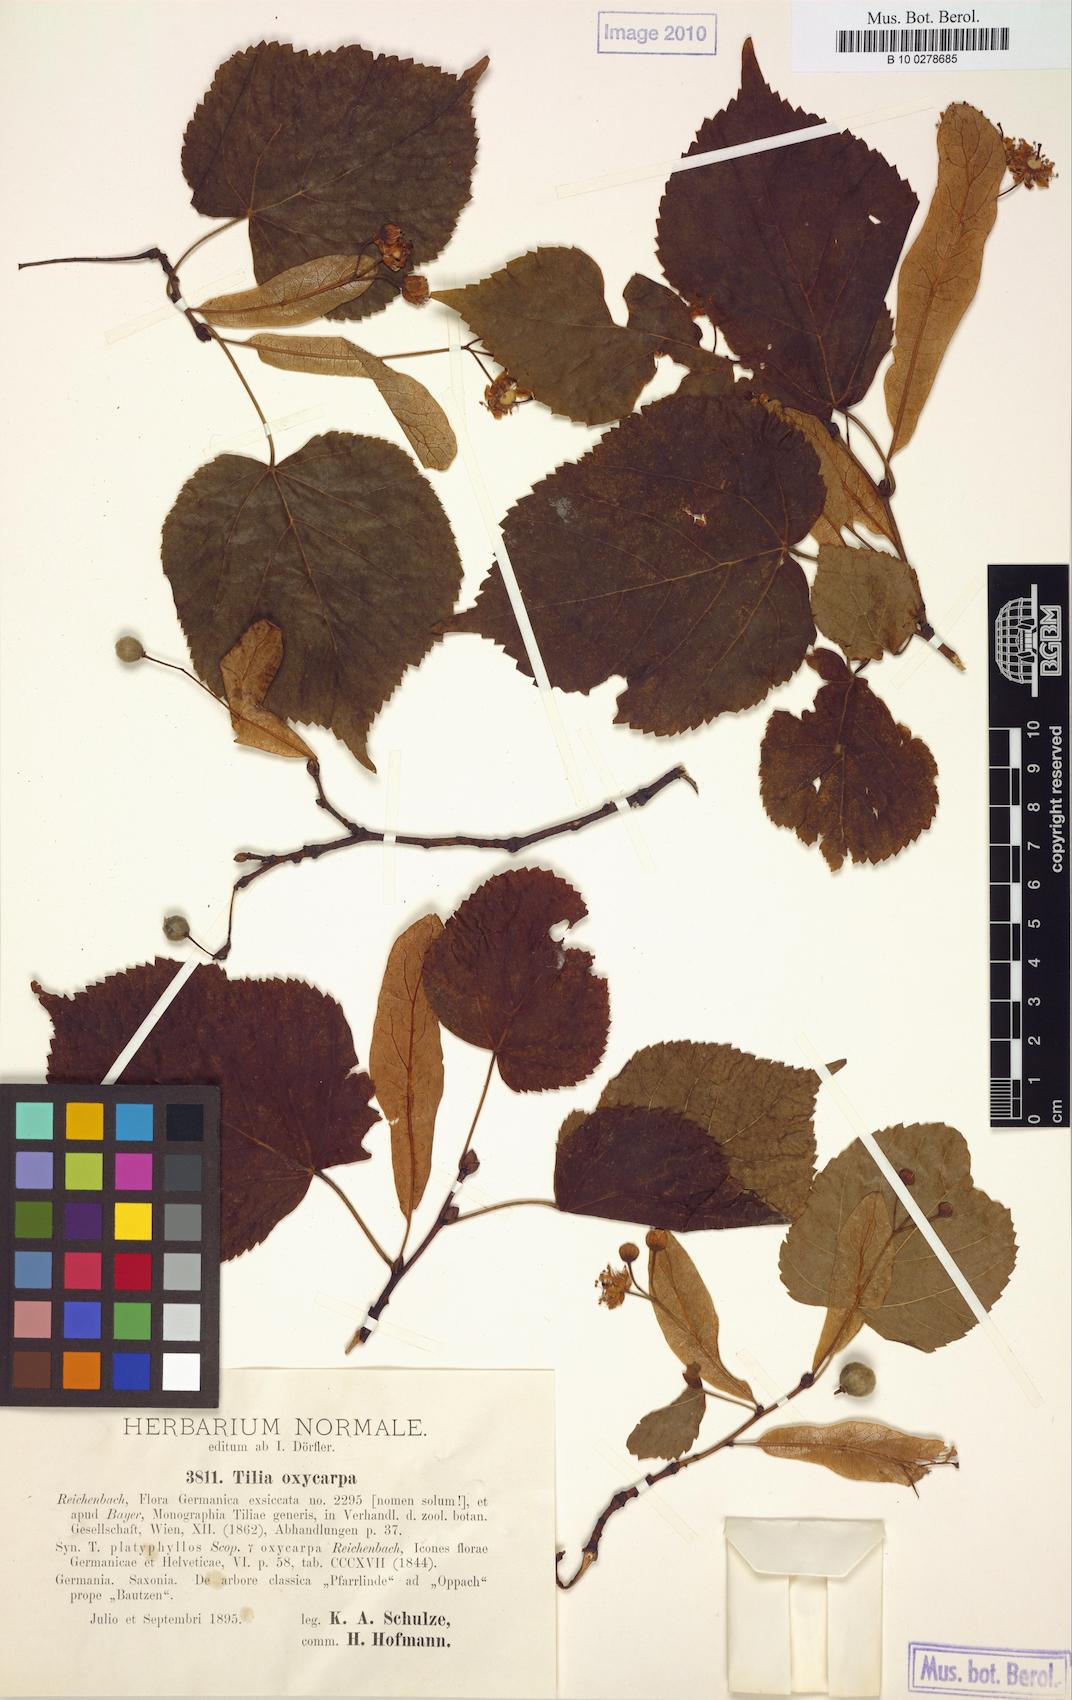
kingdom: Plantae
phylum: Tracheophyta
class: Magnoliopsida
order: Malvales
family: Malvaceae
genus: Tilia
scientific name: Tilia europaea
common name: European linden
